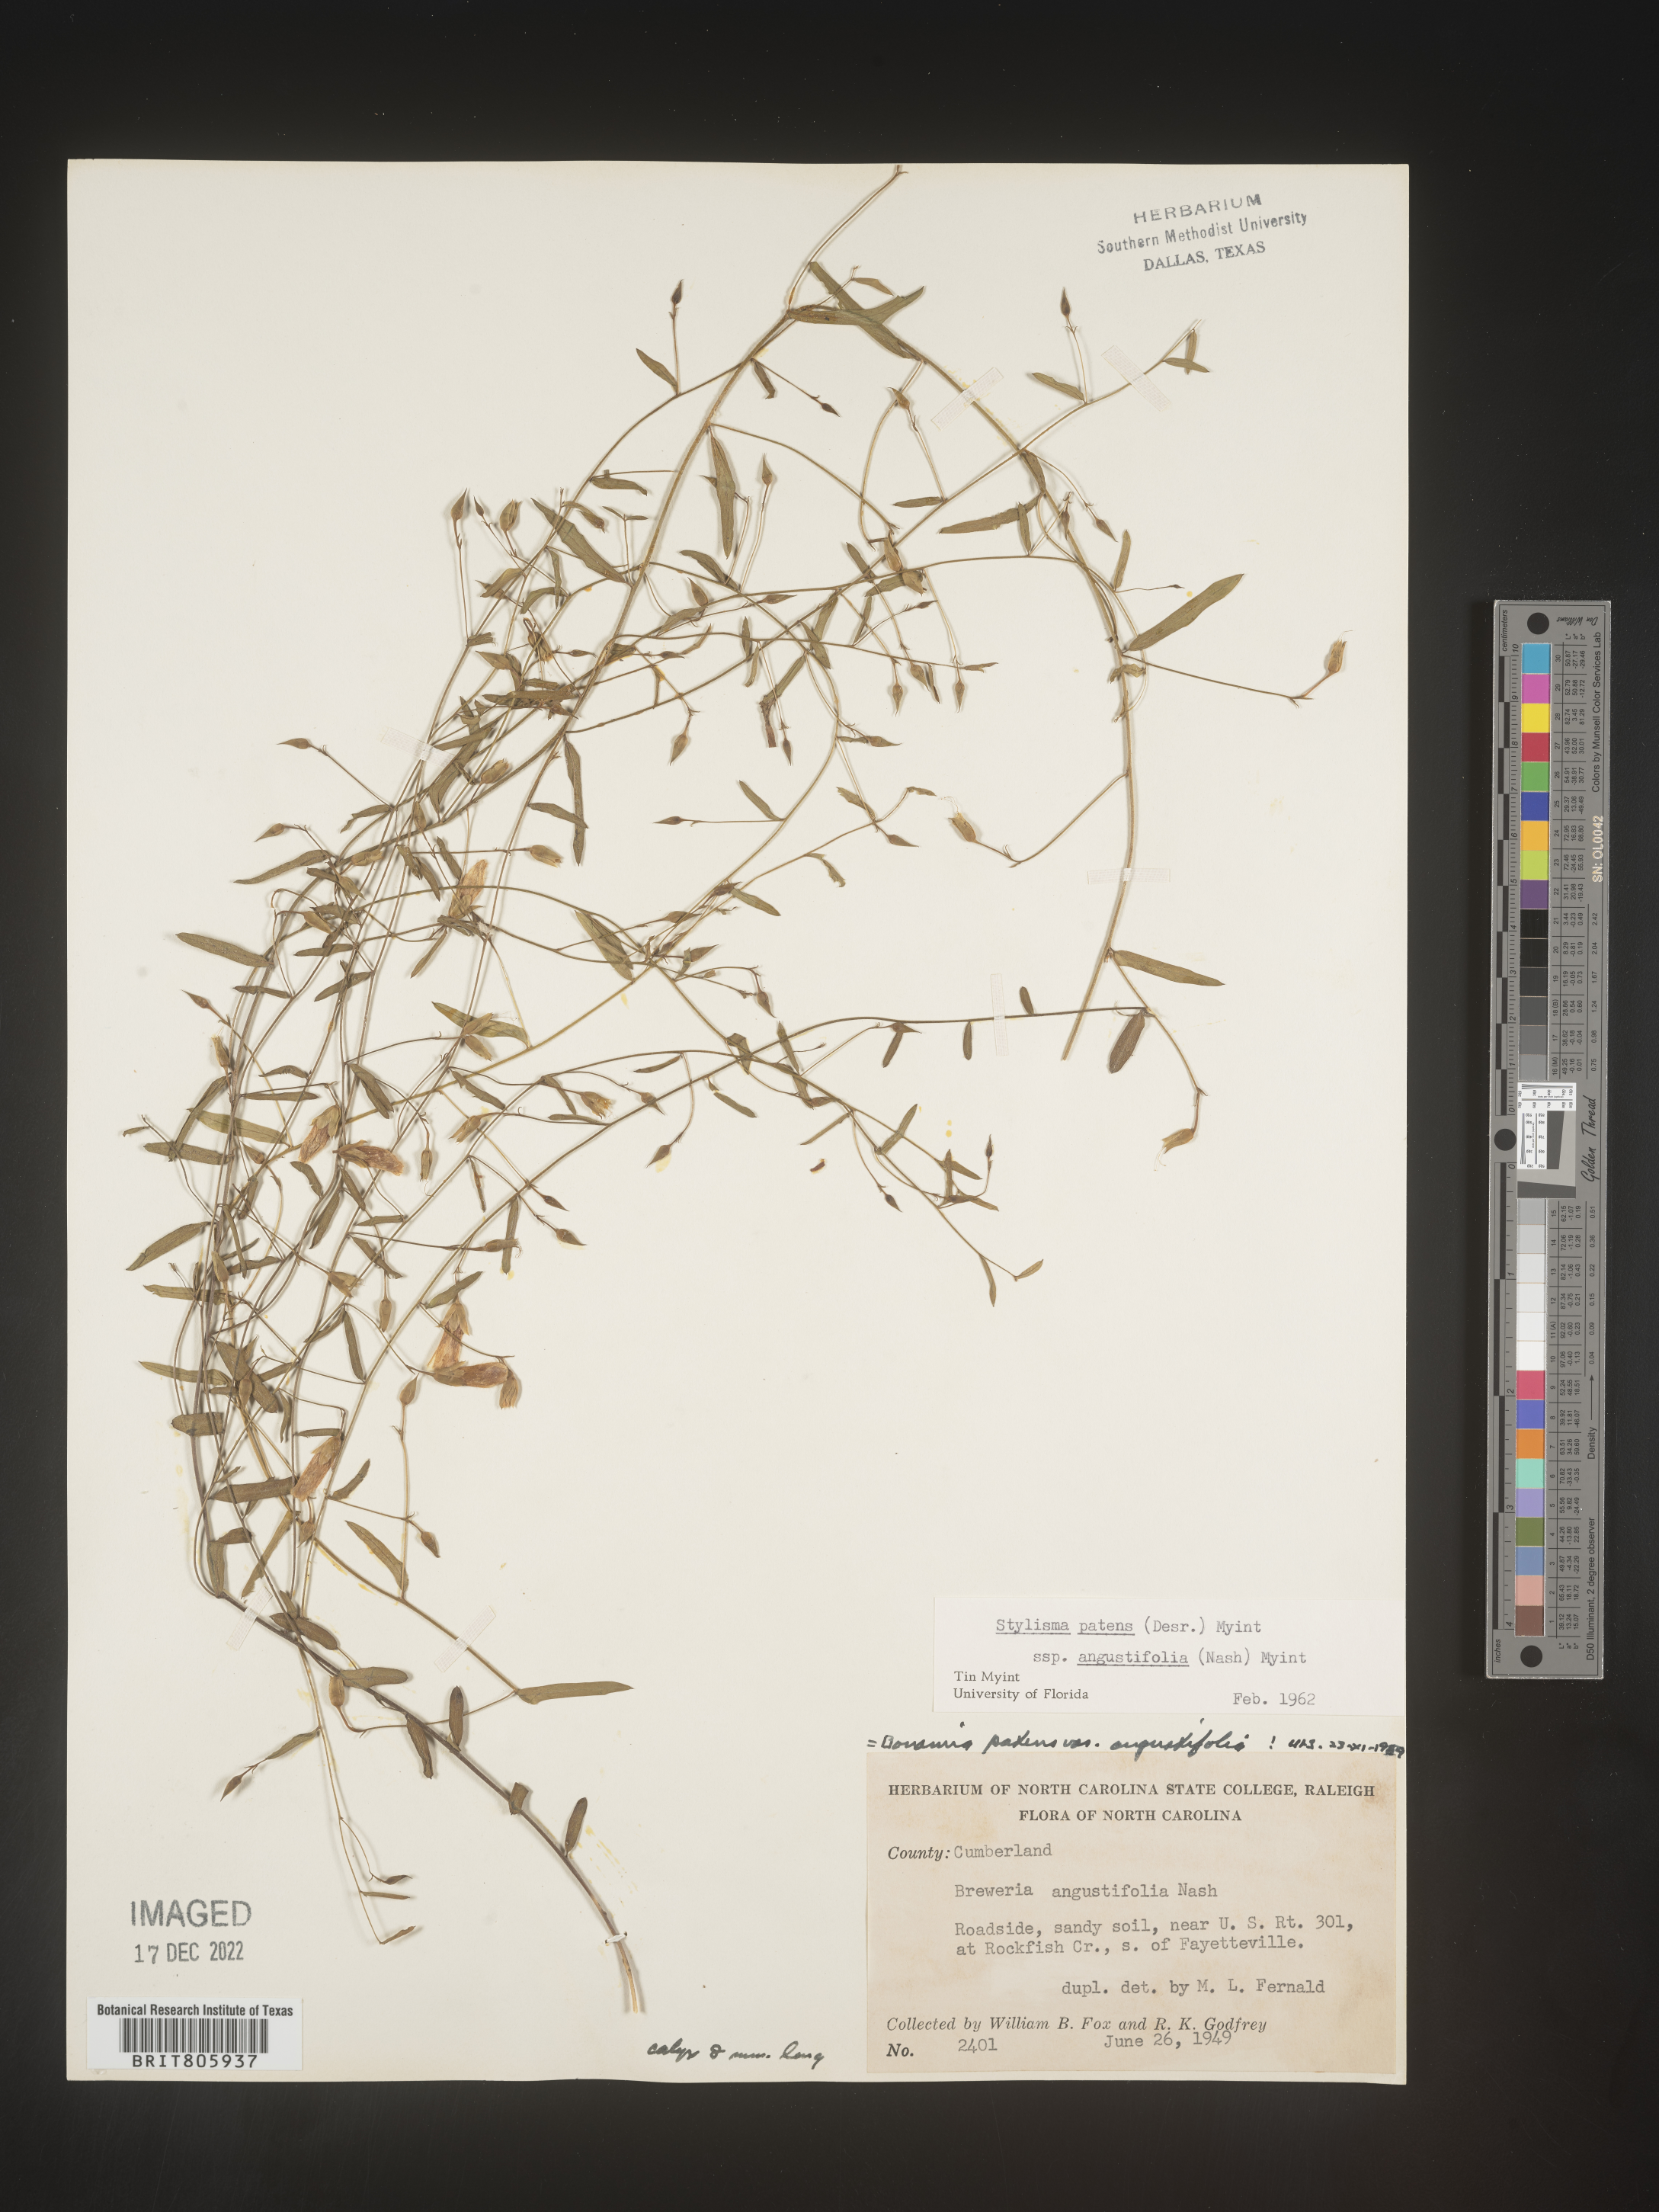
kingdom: Plantae
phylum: Tracheophyta
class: Magnoliopsida
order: Solanales
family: Convolvulaceae
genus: Stylisma
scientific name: Stylisma
